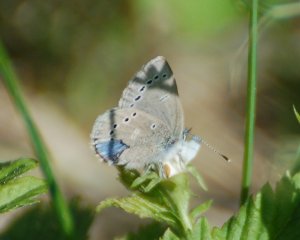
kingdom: Animalia
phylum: Arthropoda
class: Insecta
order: Lepidoptera
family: Lycaenidae
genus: Glaucopsyche
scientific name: Glaucopsyche lygdamus
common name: Silvery Blue
